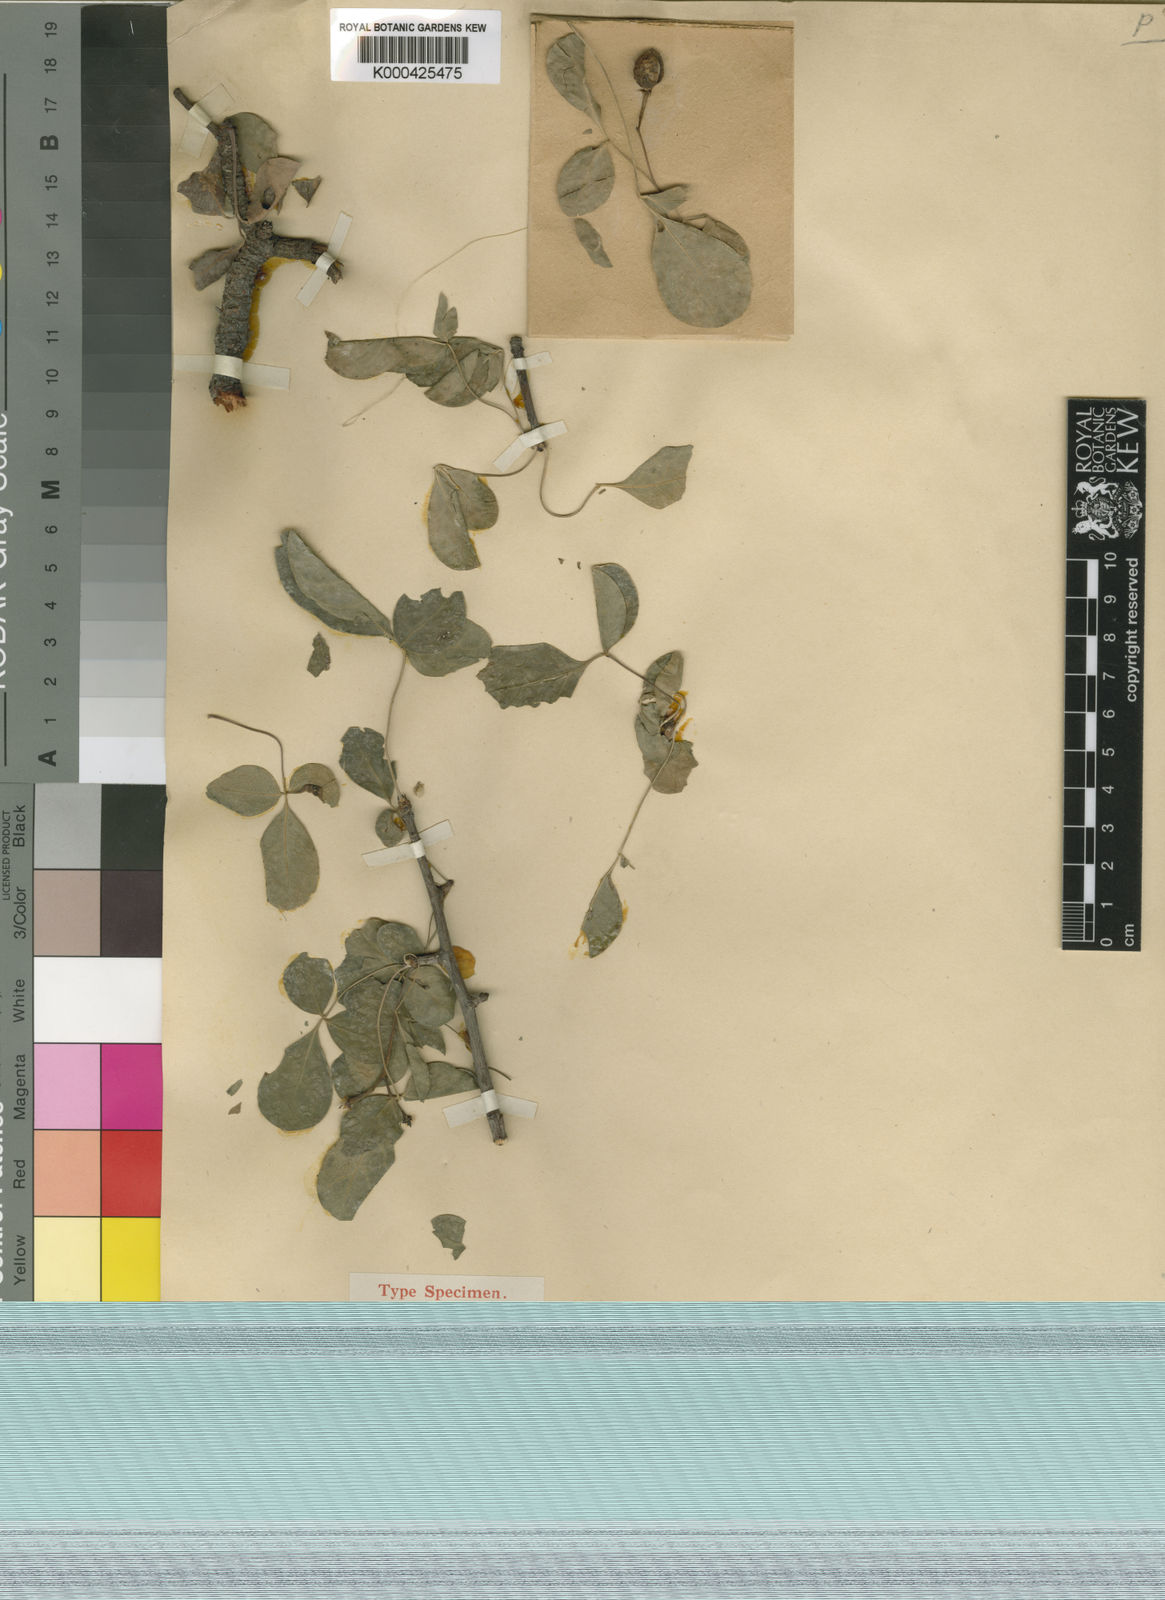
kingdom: Plantae
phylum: Tracheophyta
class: Magnoliopsida
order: Sapindales
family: Burseraceae
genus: Commiphora
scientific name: Commiphora tenuipetiolata
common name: Satin-bark corkwood
